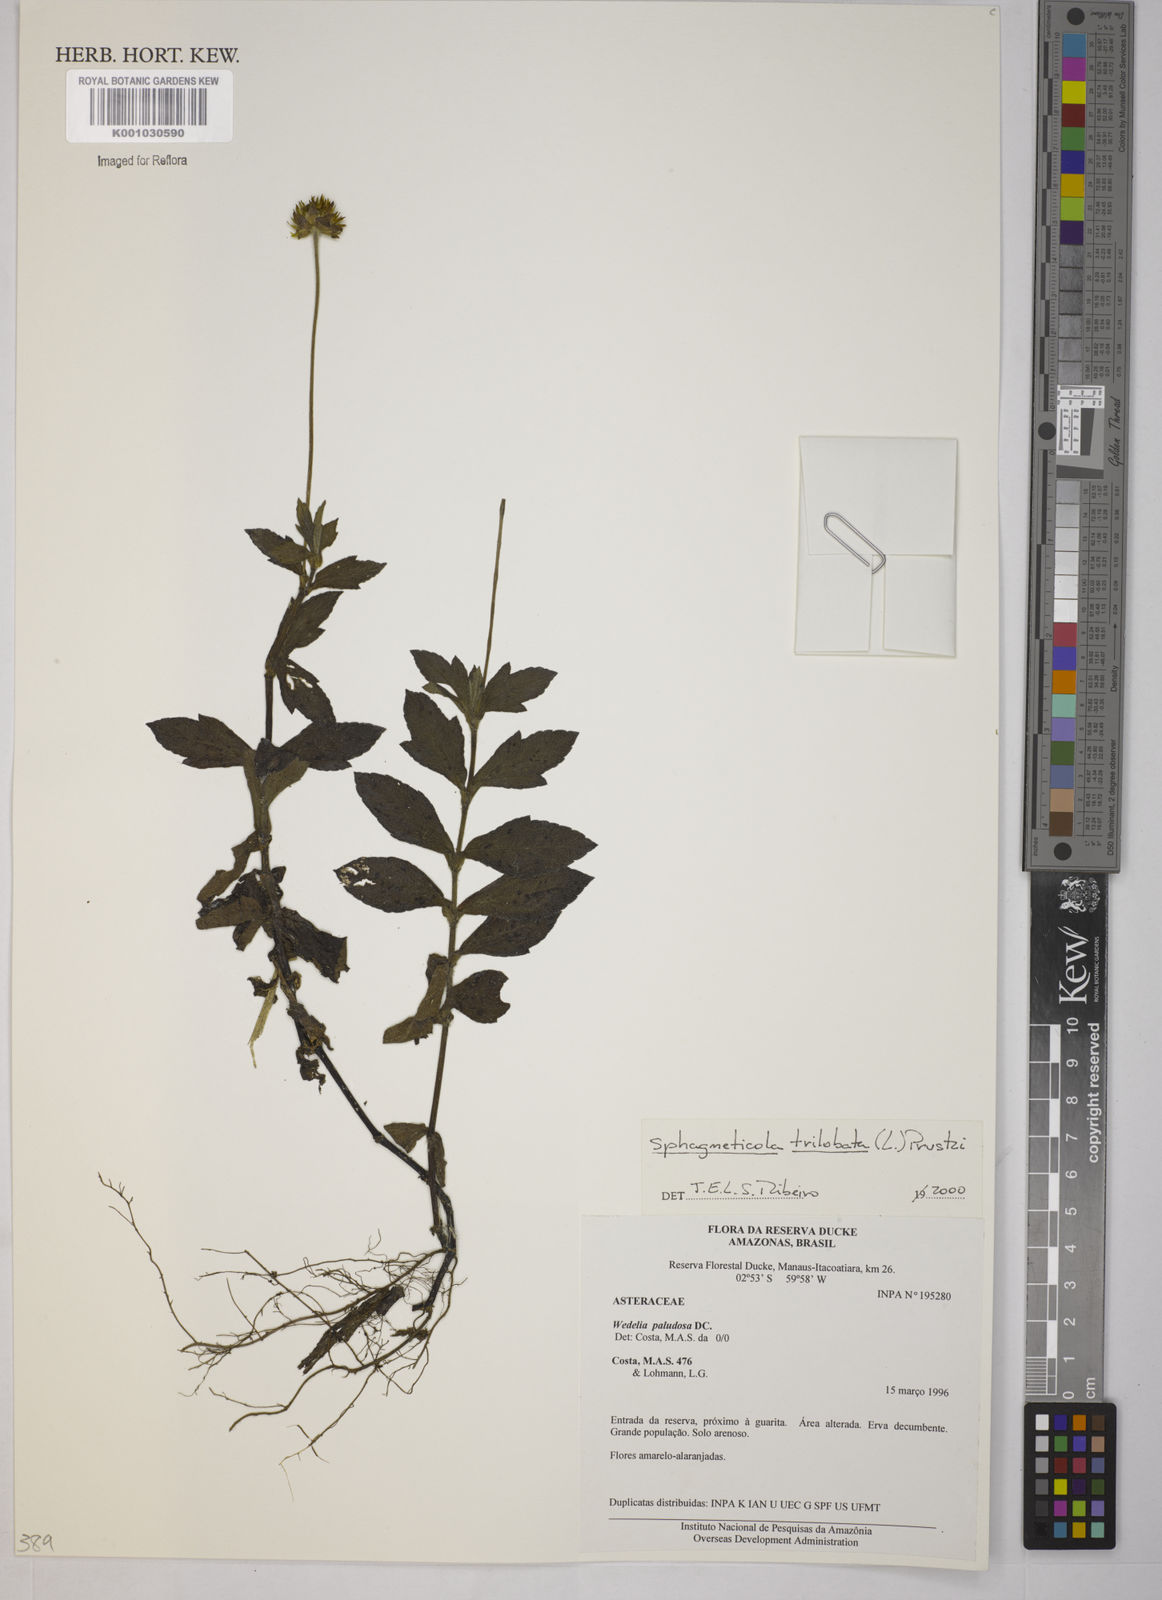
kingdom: Plantae
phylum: Tracheophyta
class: Magnoliopsida
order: Asterales
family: Asteraceae
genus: Sphagneticola
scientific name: Sphagneticola trilobata
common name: Bay biscayne creeping-oxeye
